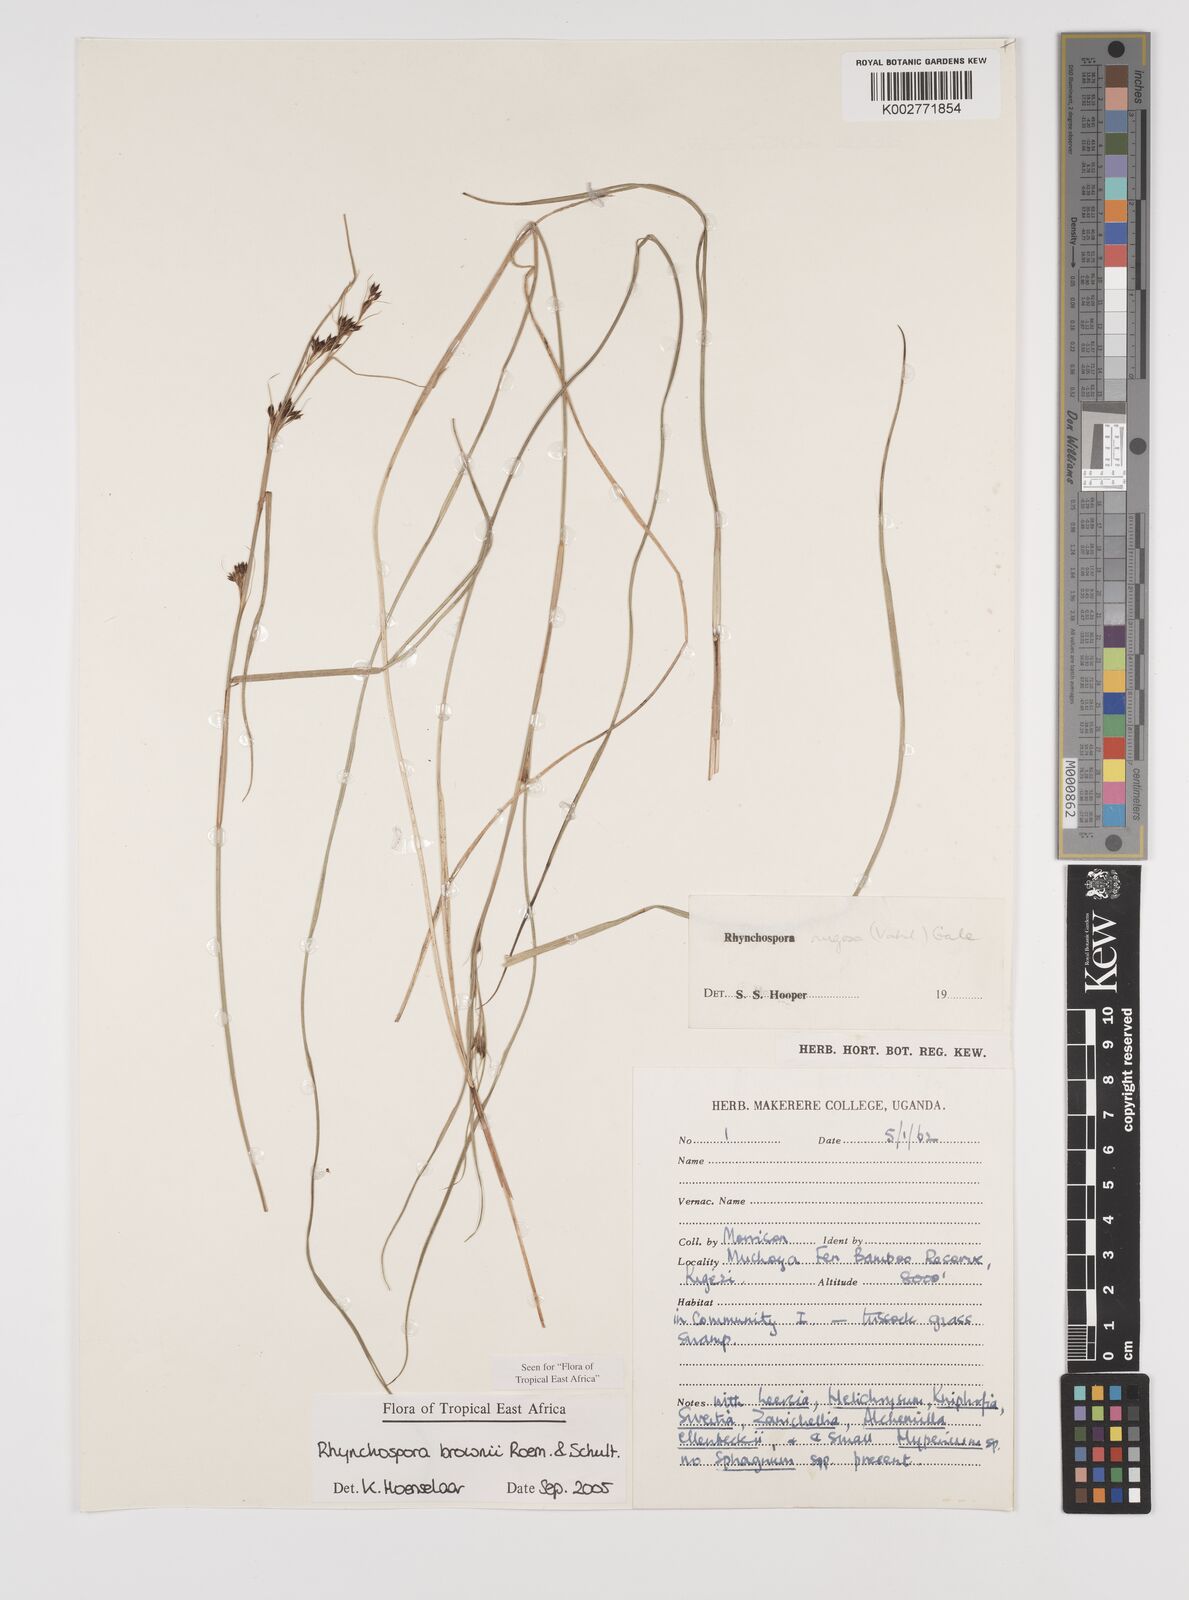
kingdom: Plantae
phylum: Tracheophyta
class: Liliopsida
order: Poales
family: Cyperaceae
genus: Rhynchospora
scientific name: Rhynchospora brownii
